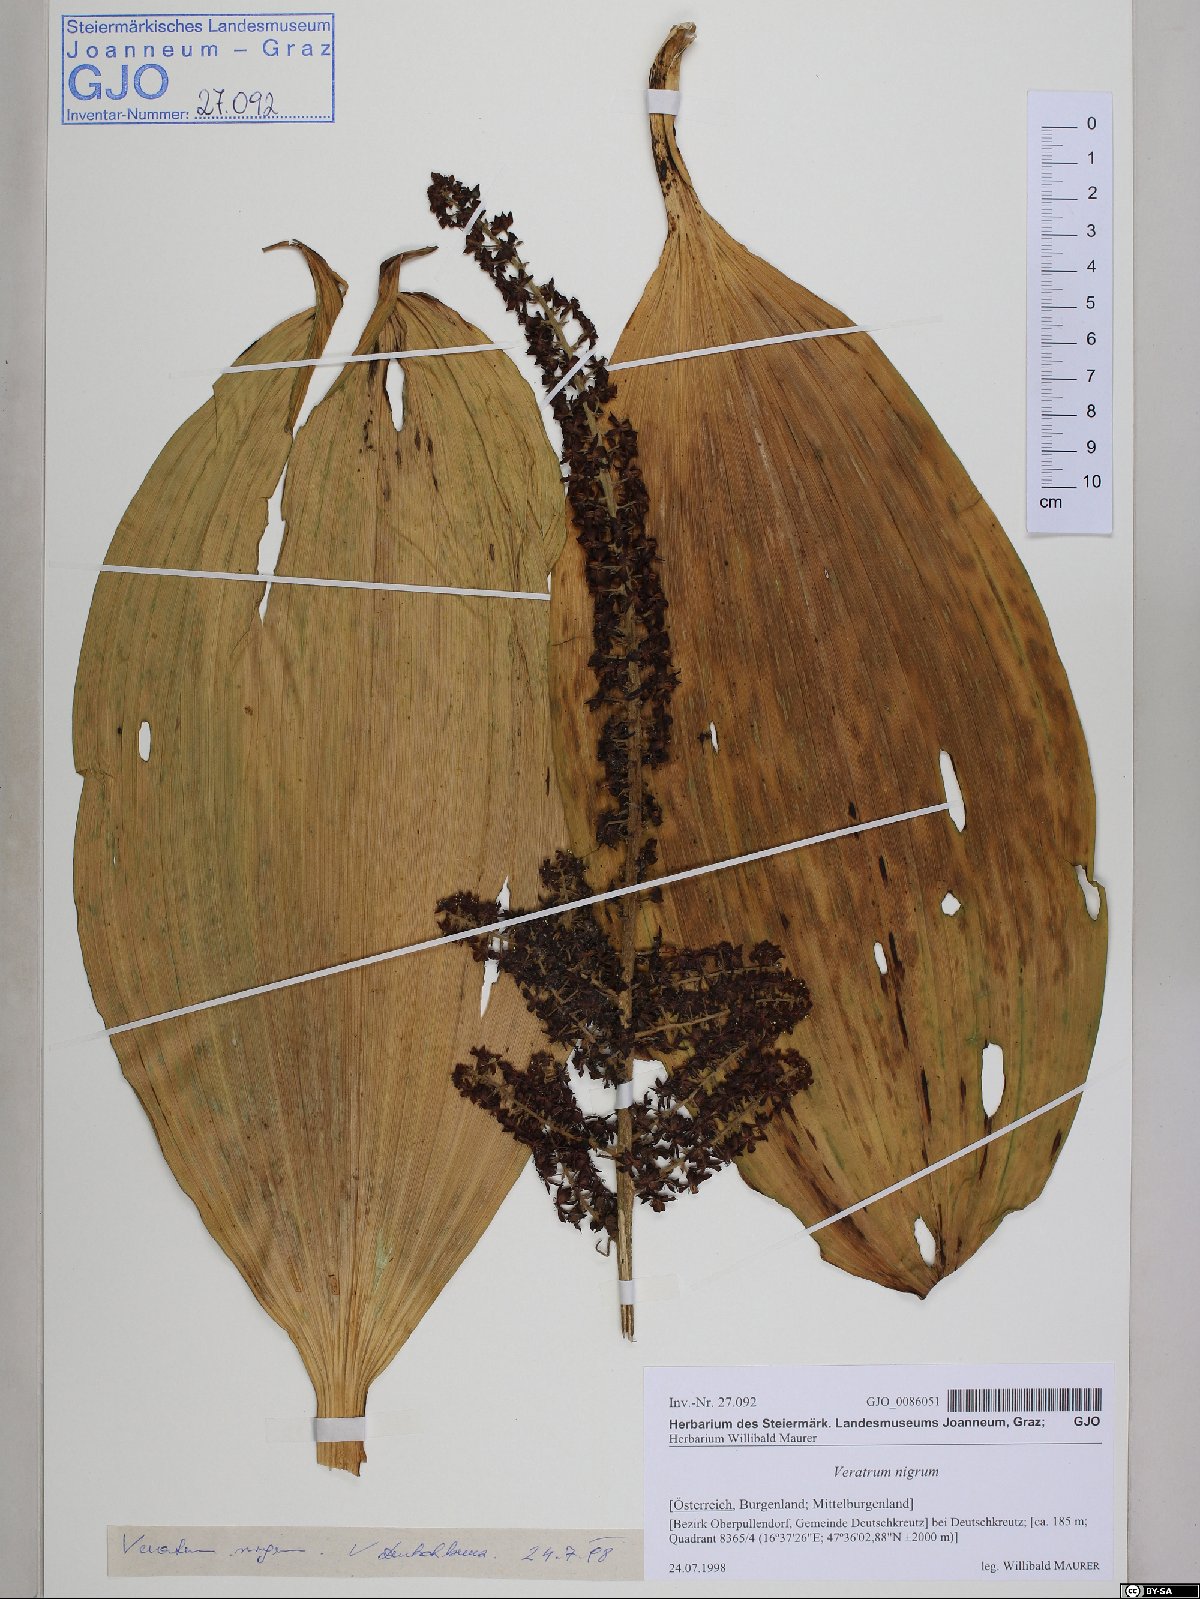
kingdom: Plantae
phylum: Tracheophyta
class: Liliopsida
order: Liliales
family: Melanthiaceae
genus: Veratrum
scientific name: Veratrum nigrum
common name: Black veratrum
